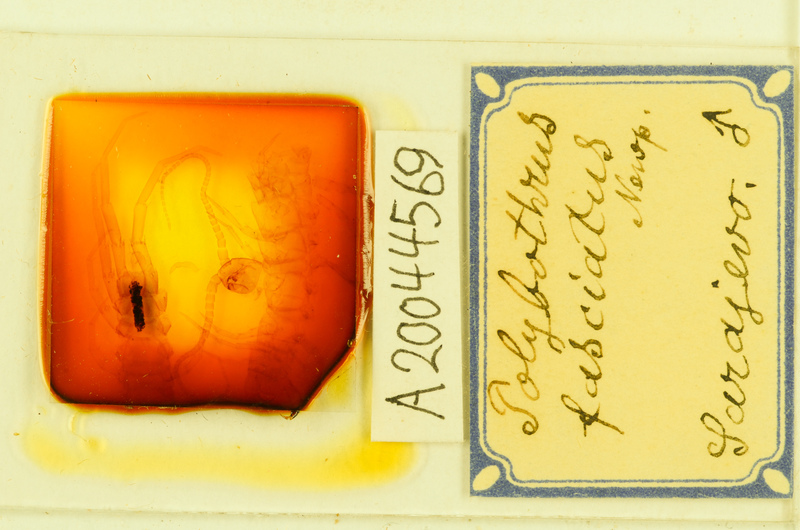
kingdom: Animalia
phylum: Arthropoda
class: Chilopoda
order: Lithobiomorpha
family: Lithobiidae
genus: Polybothrus
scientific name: Polybothrus fasciatus
